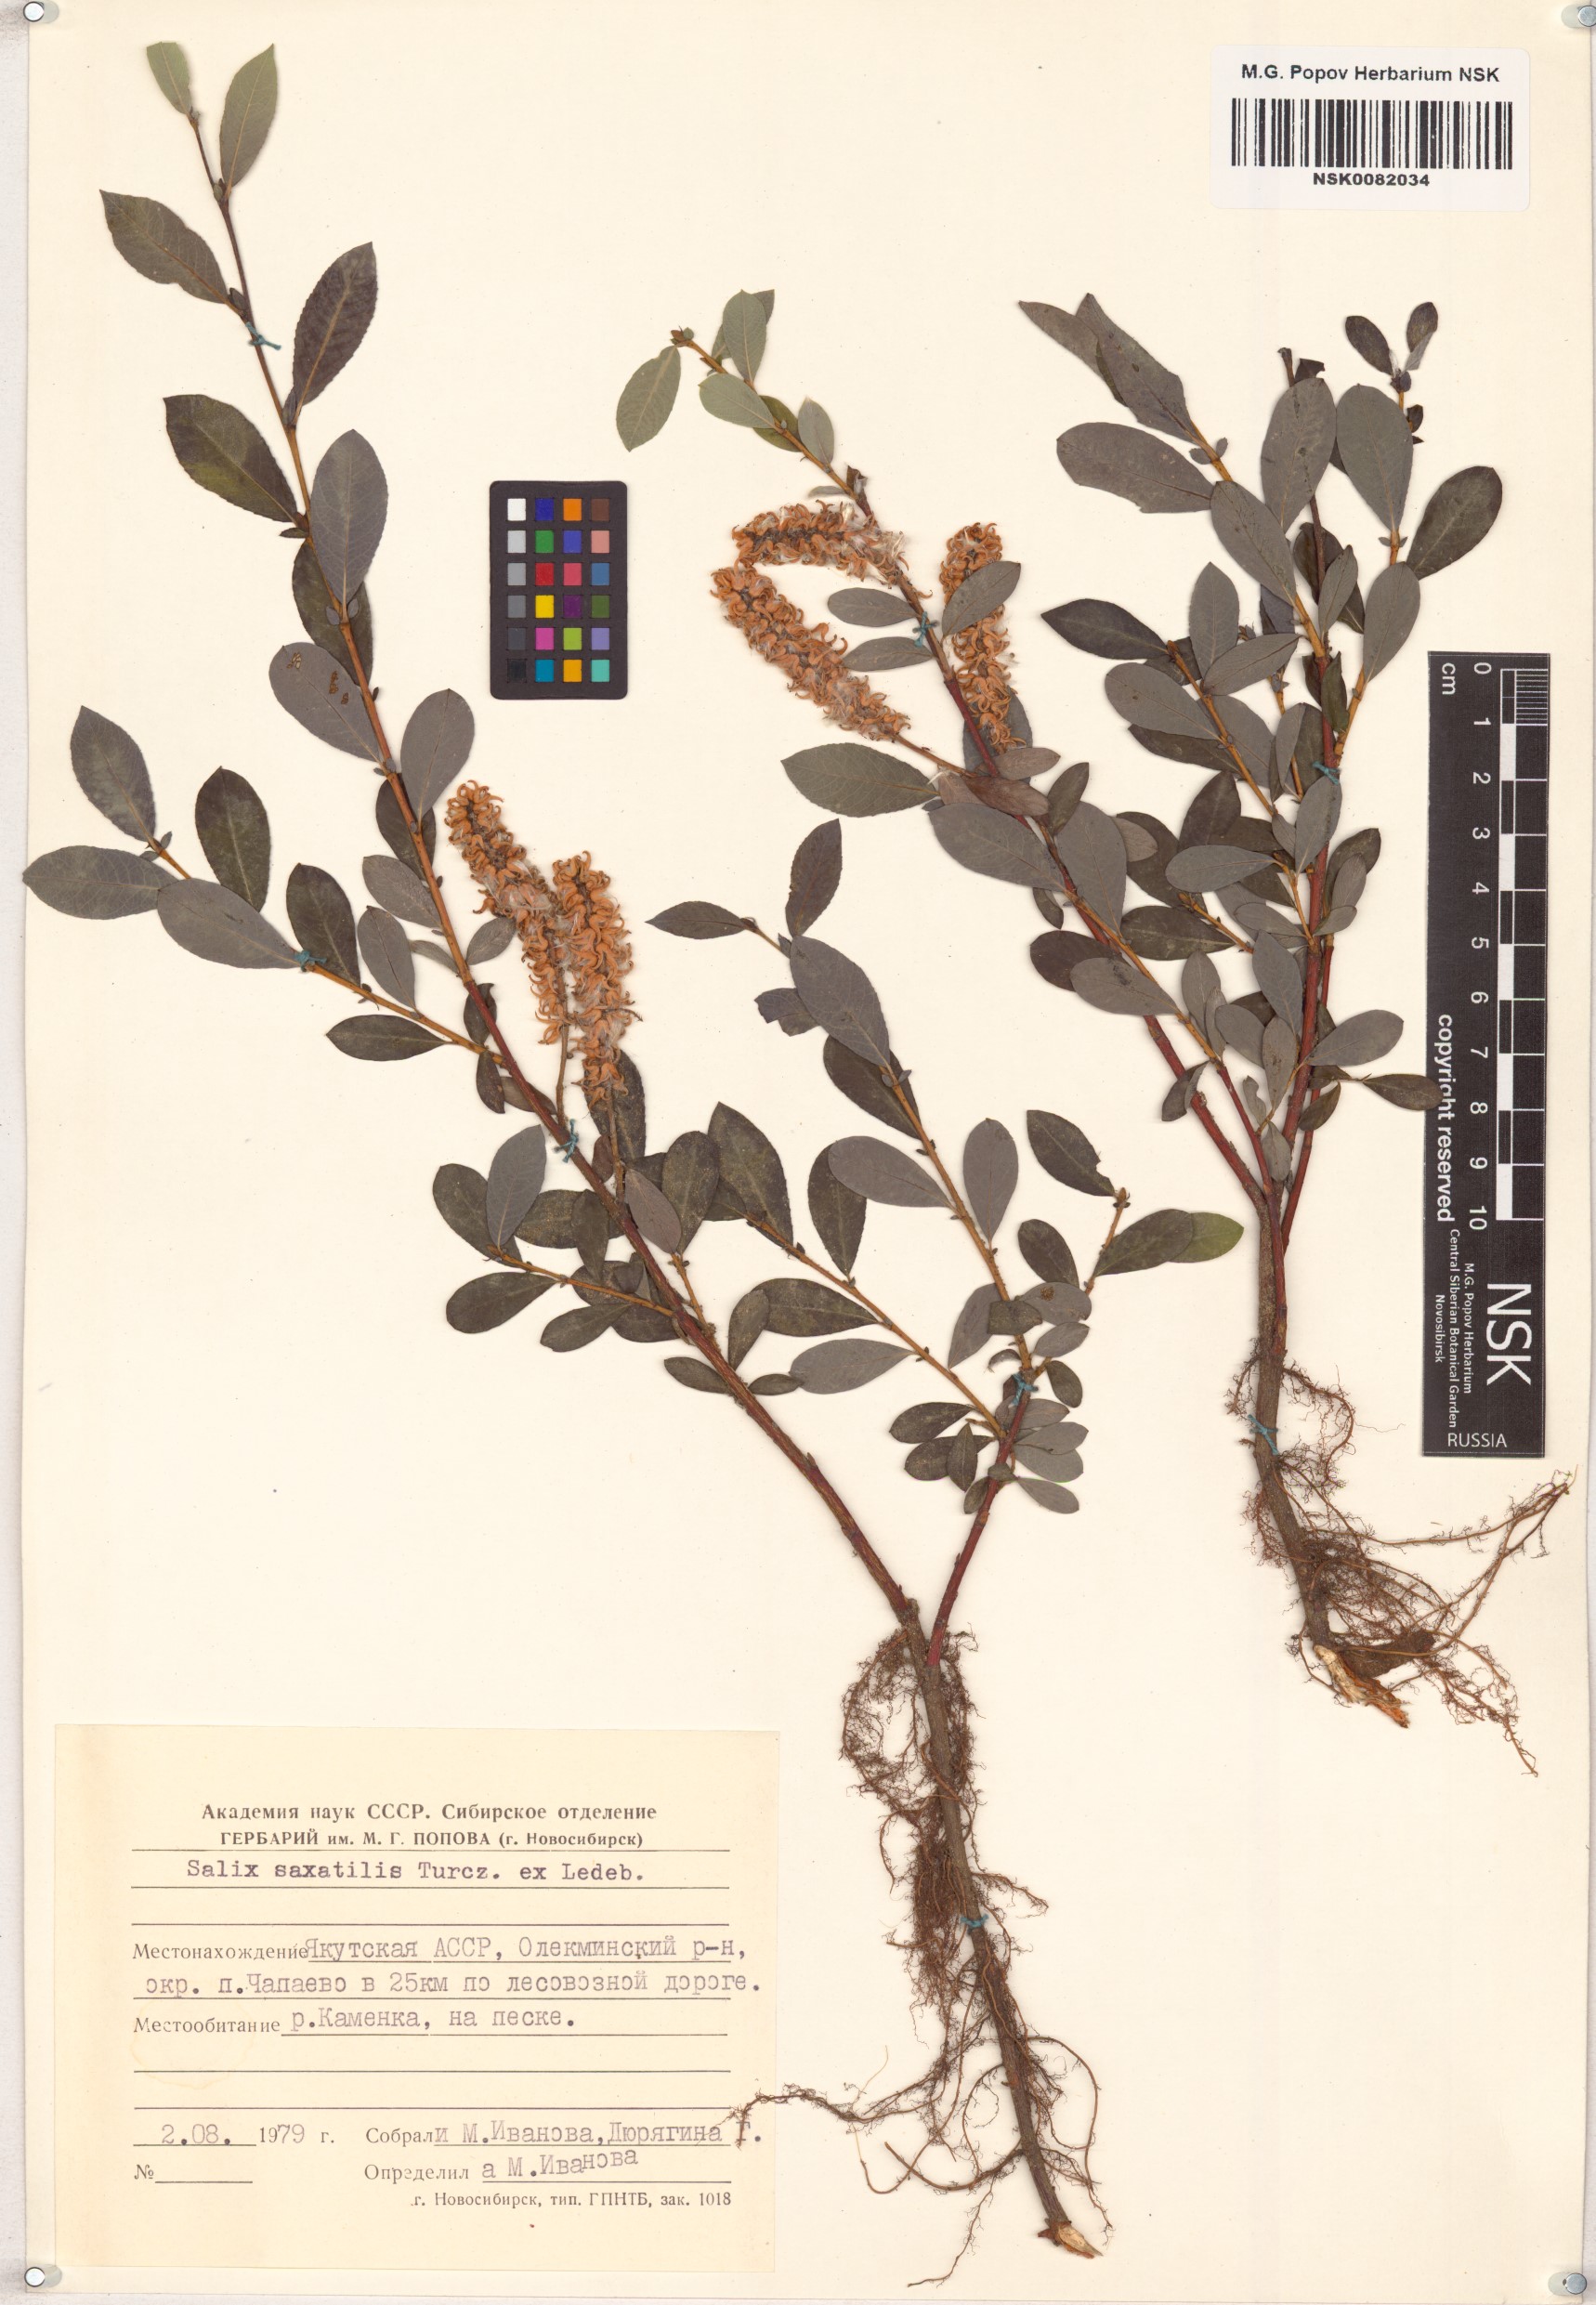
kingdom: Plantae
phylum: Tracheophyta
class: Magnoliopsida
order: Malpighiales
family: Salicaceae
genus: Salix
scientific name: Salix saxatilis
